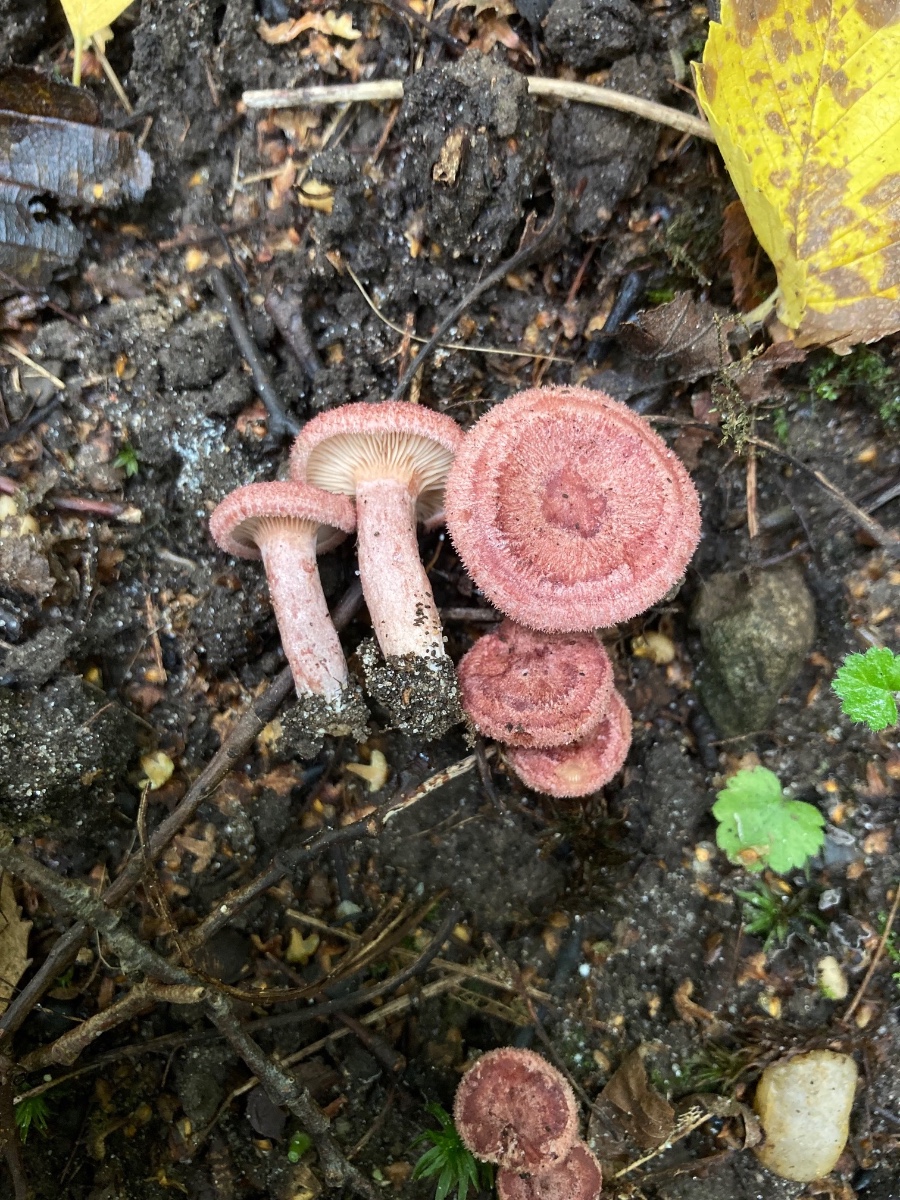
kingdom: Fungi
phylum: Basidiomycota
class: Agaricomycetes
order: Russulales
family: Russulaceae
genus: Lactarius
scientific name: Lactarius spinosulus
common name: småskællet mælkehat
